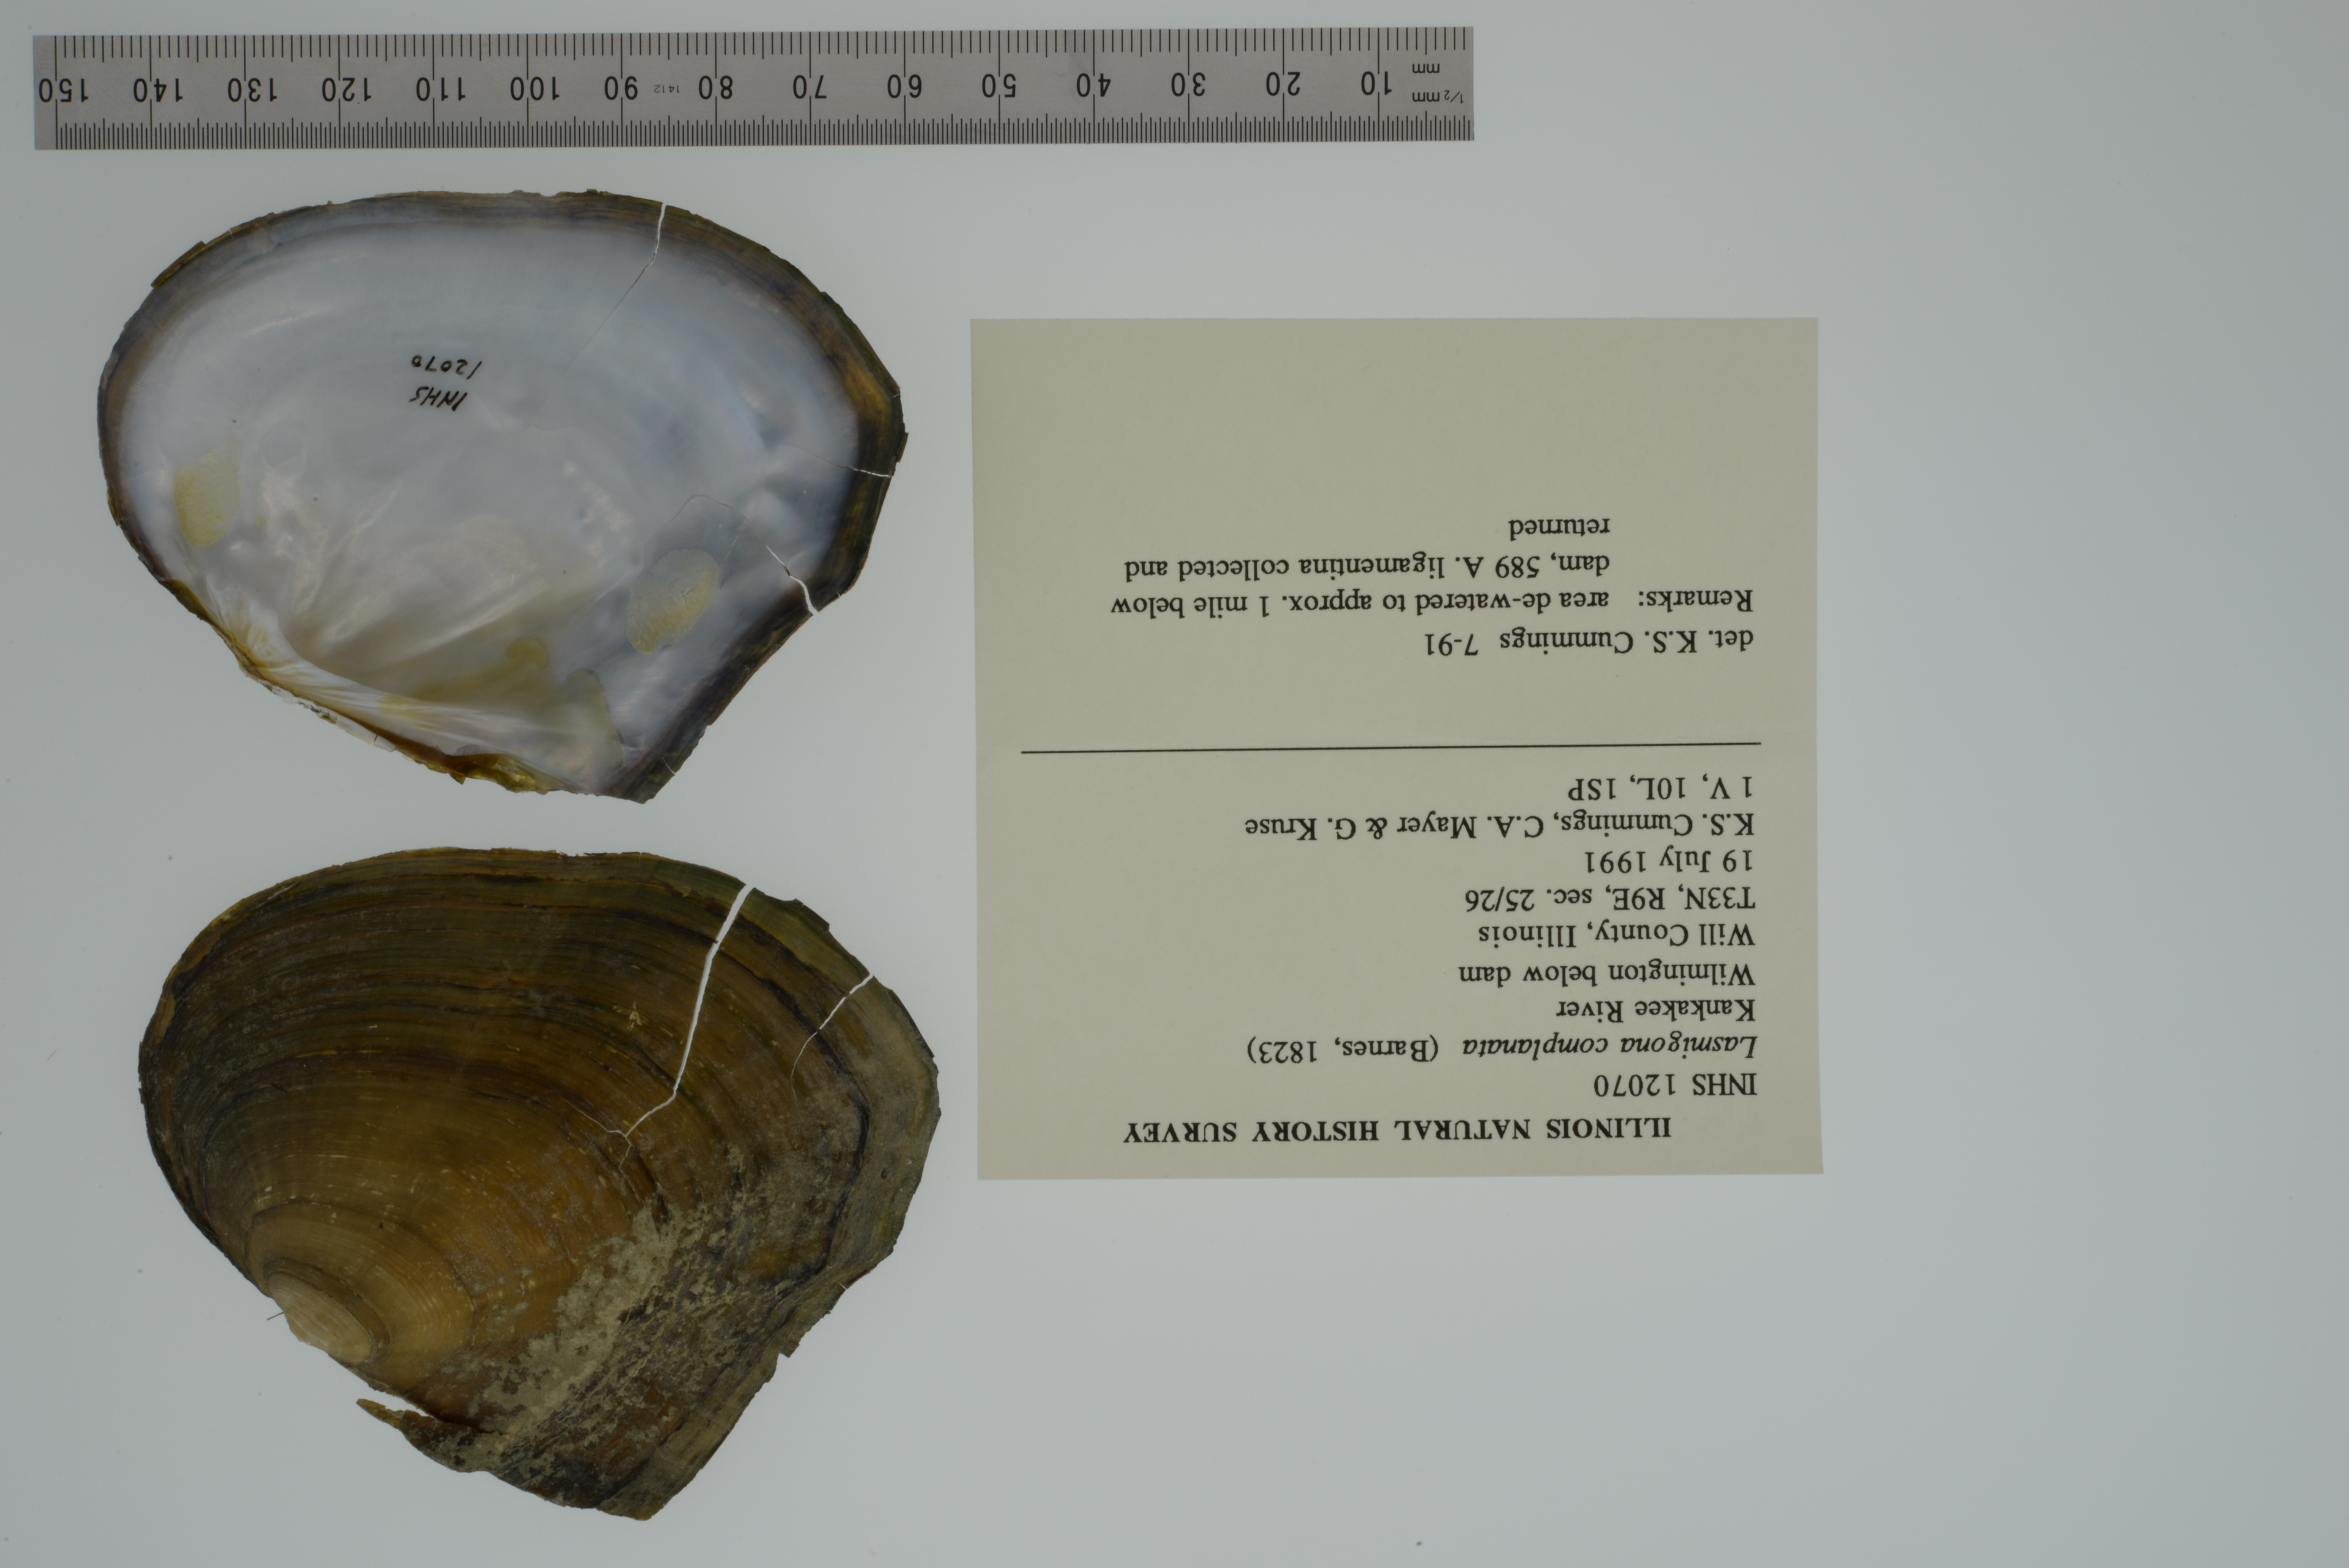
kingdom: Animalia
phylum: Mollusca
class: Bivalvia
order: Unionida
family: Unionidae
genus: Lasmigona
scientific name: Lasmigona complanata
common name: White heelsplitter
